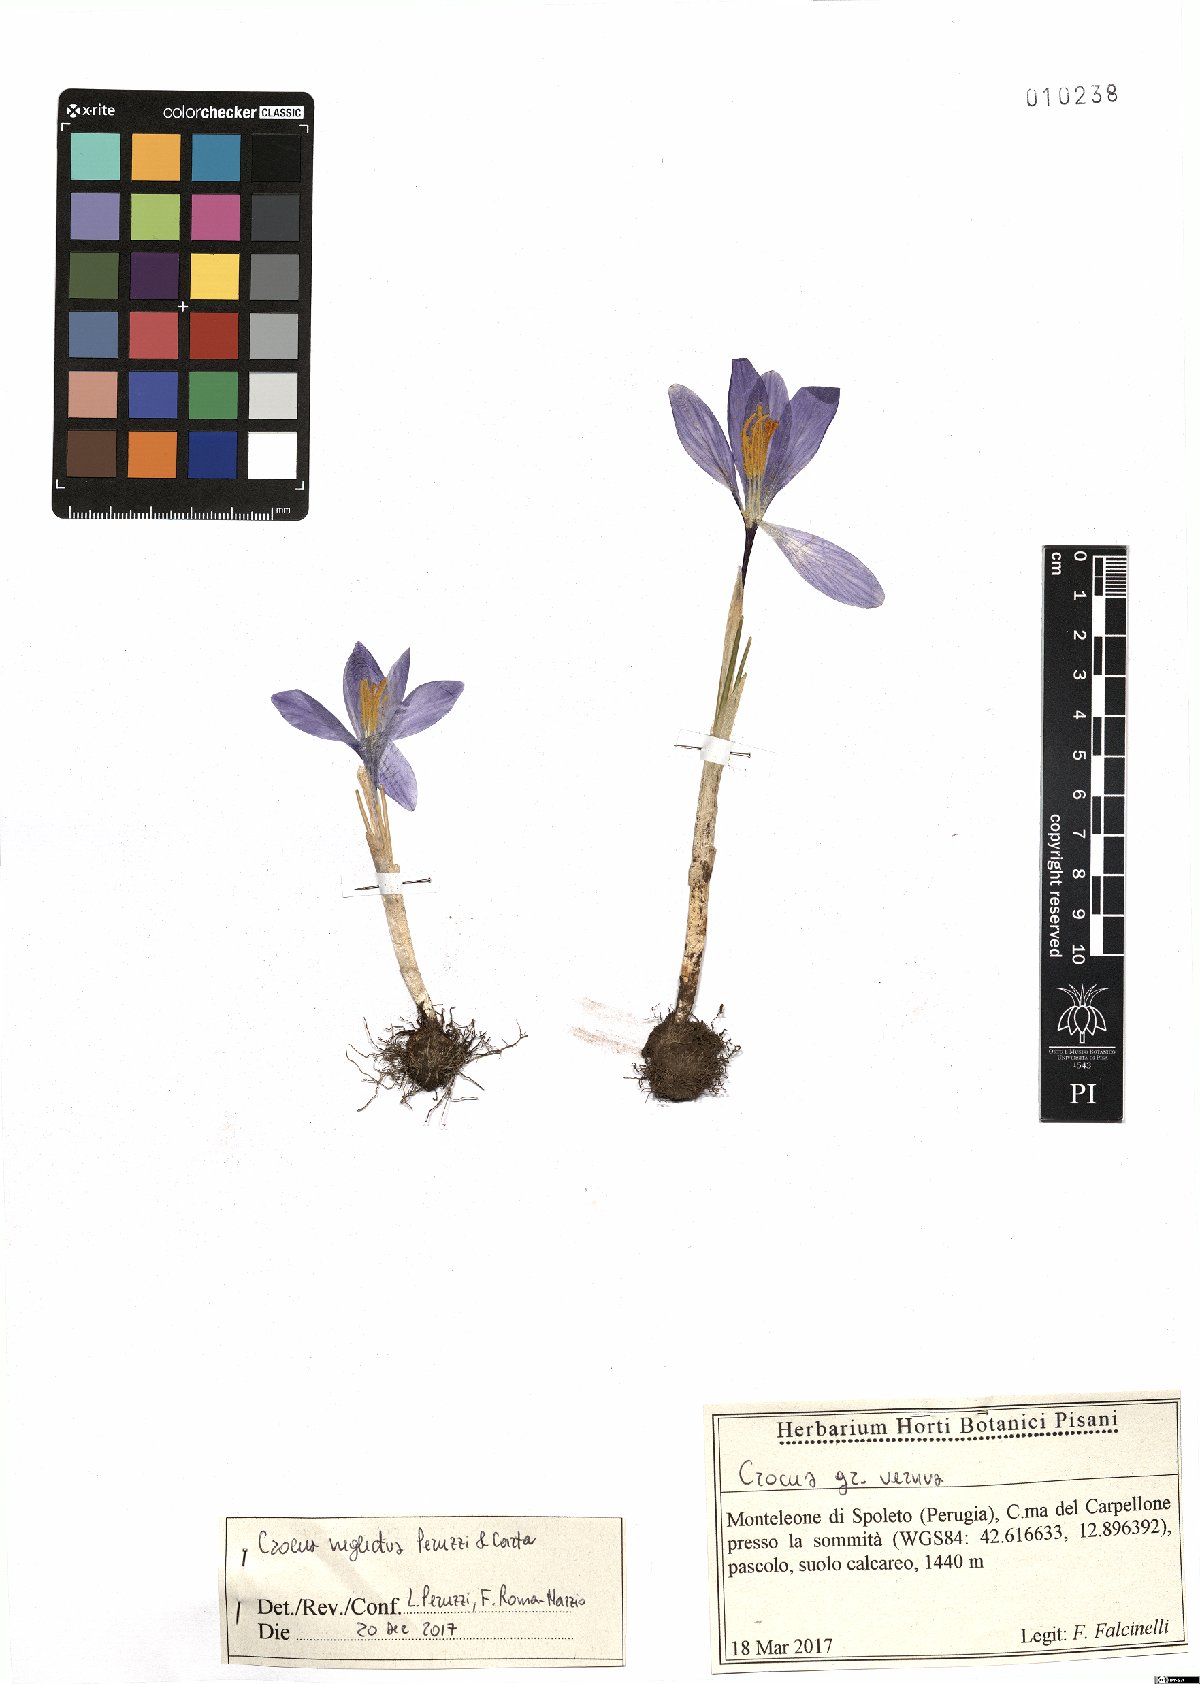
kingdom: Plantae
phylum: Tracheophyta
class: Liliopsida
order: Asparagales
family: Iridaceae
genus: Crocus
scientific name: Crocus neglectus
